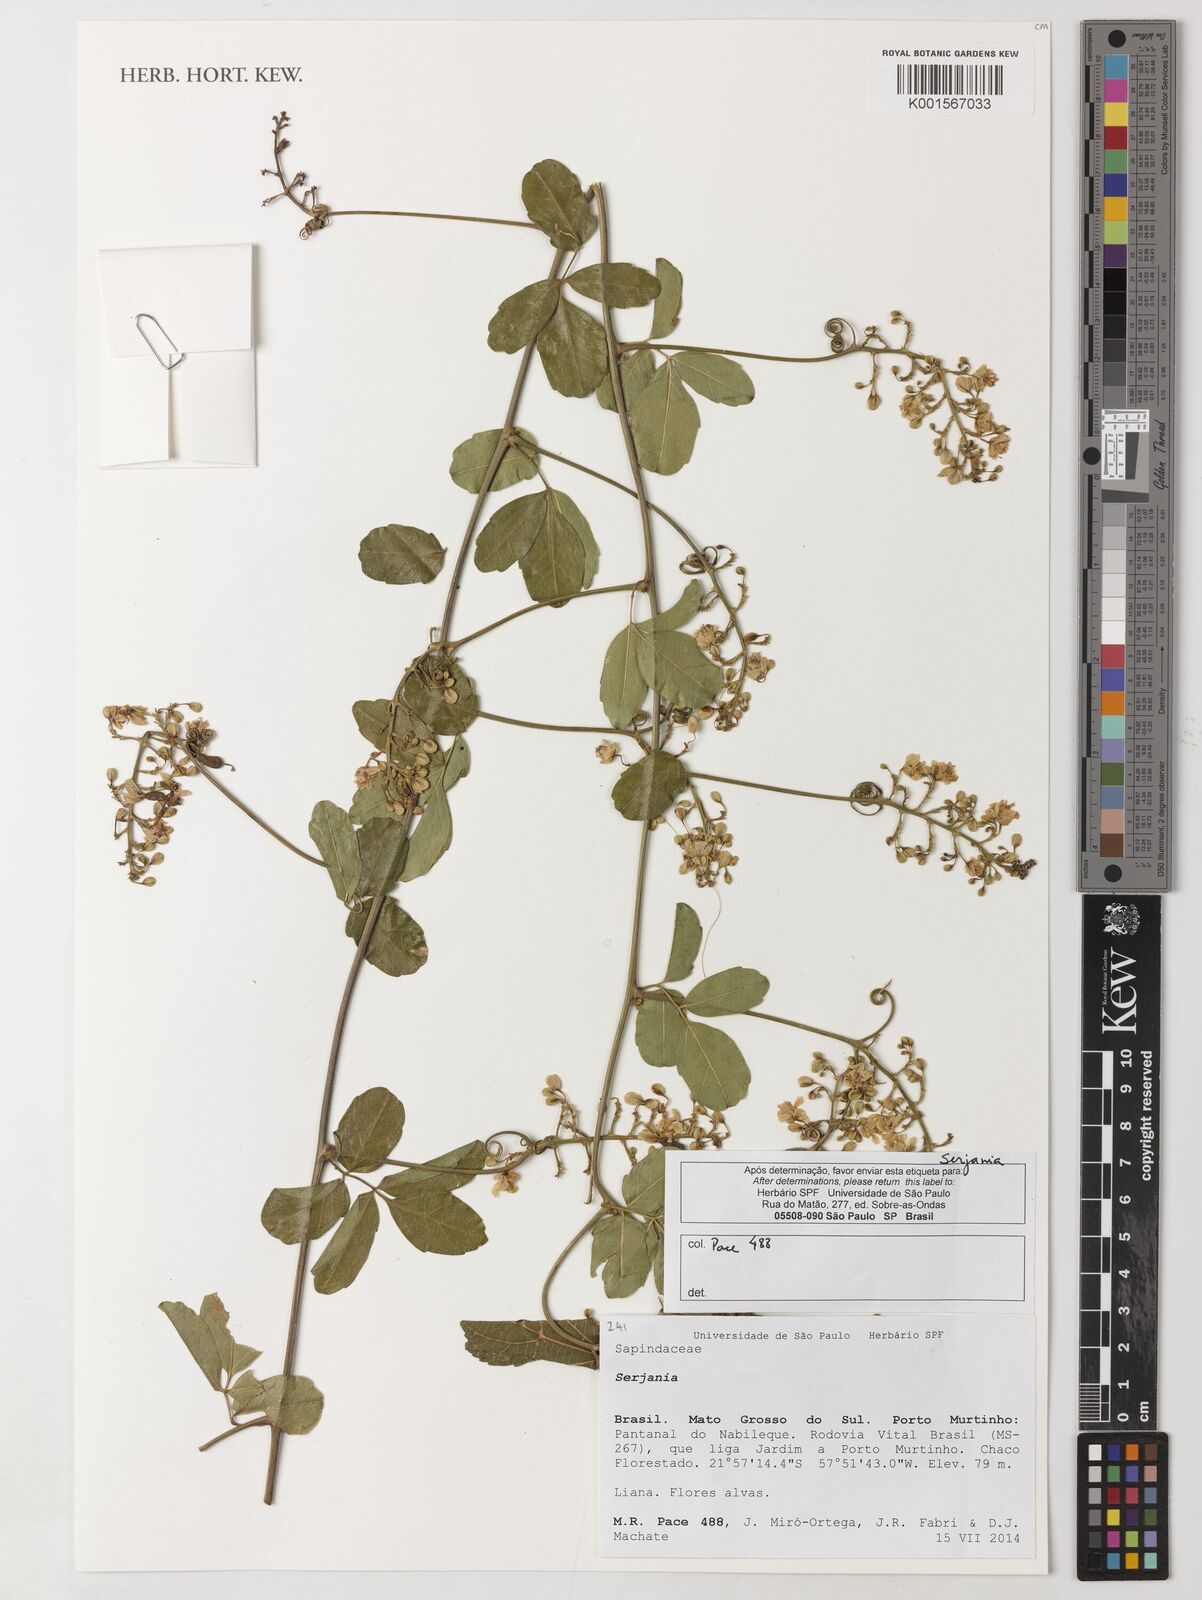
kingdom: Plantae
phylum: Tracheophyta
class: Magnoliopsida
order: Sapindales
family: Sapindaceae
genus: Serjania
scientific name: Serjania
